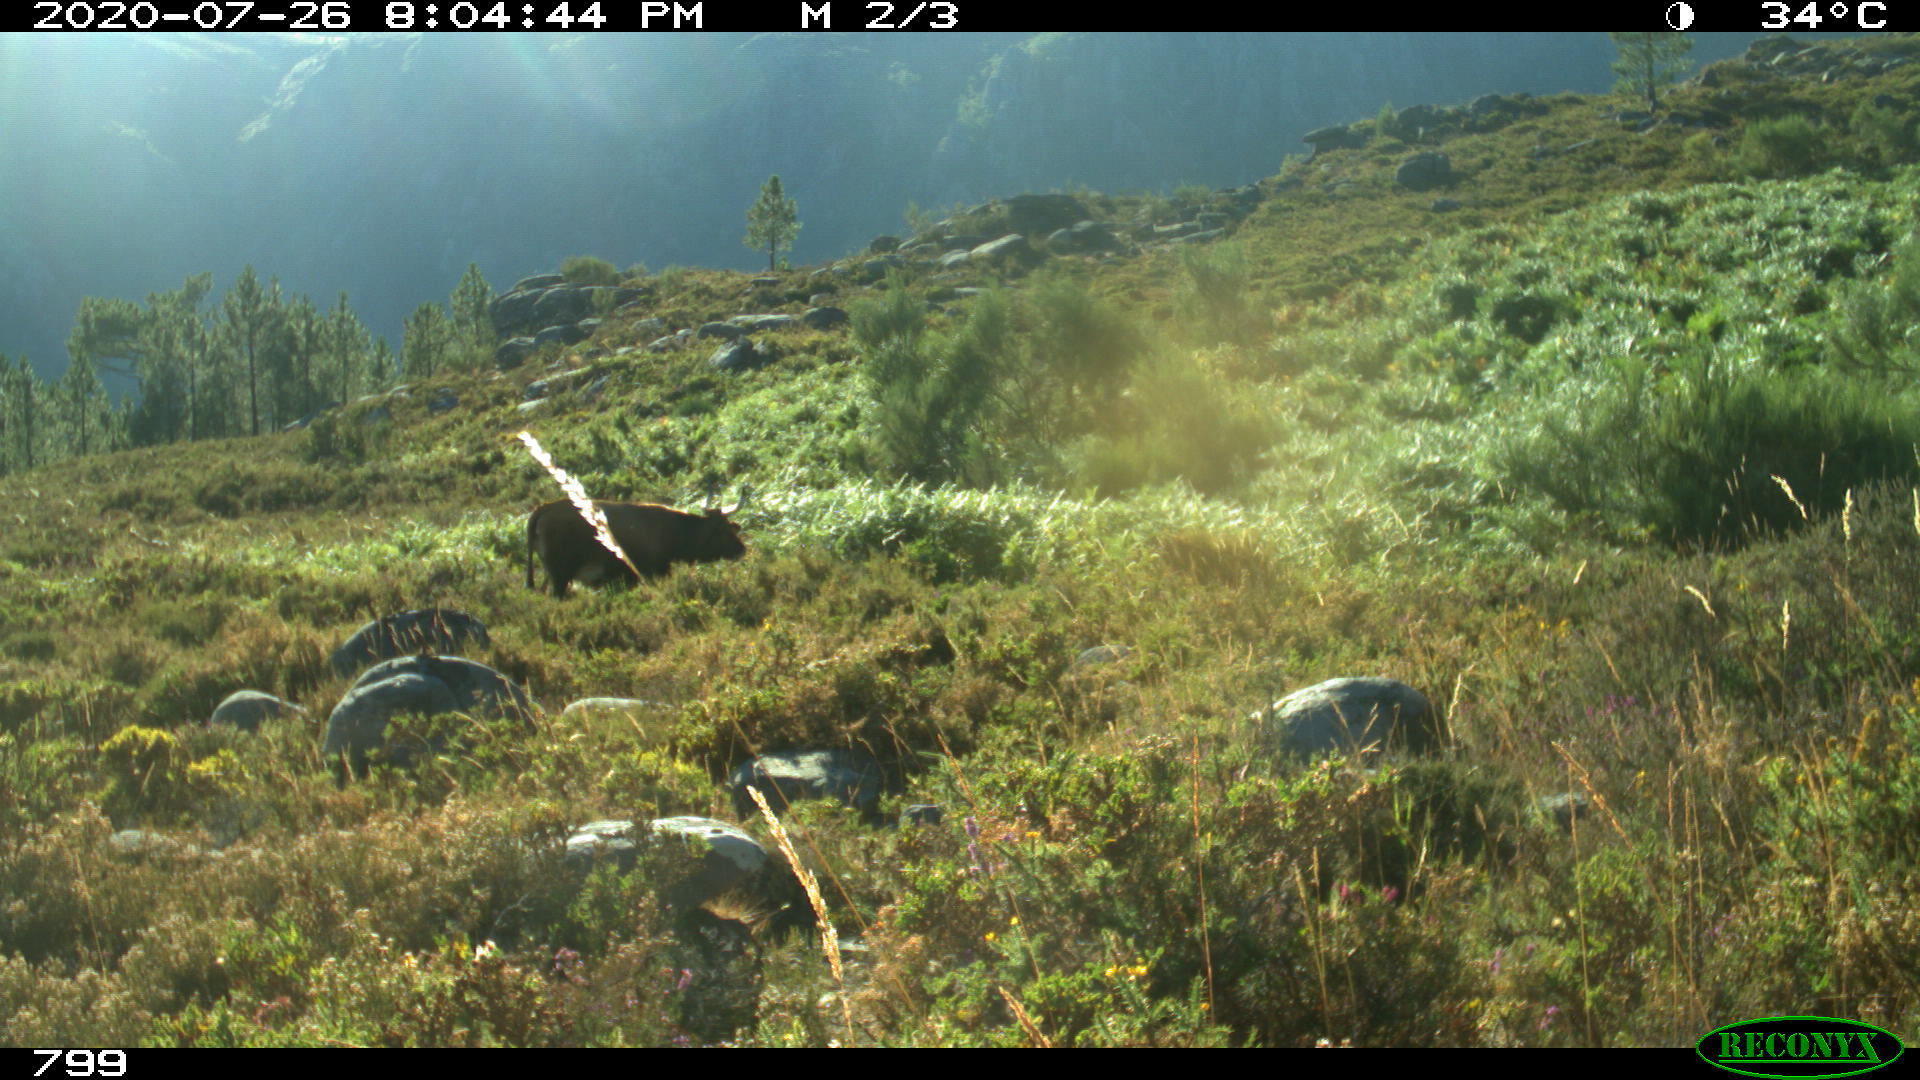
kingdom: Animalia
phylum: Chordata
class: Mammalia
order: Artiodactyla
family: Bovidae
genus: Bos
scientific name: Bos taurus
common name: Domesticated cattle
